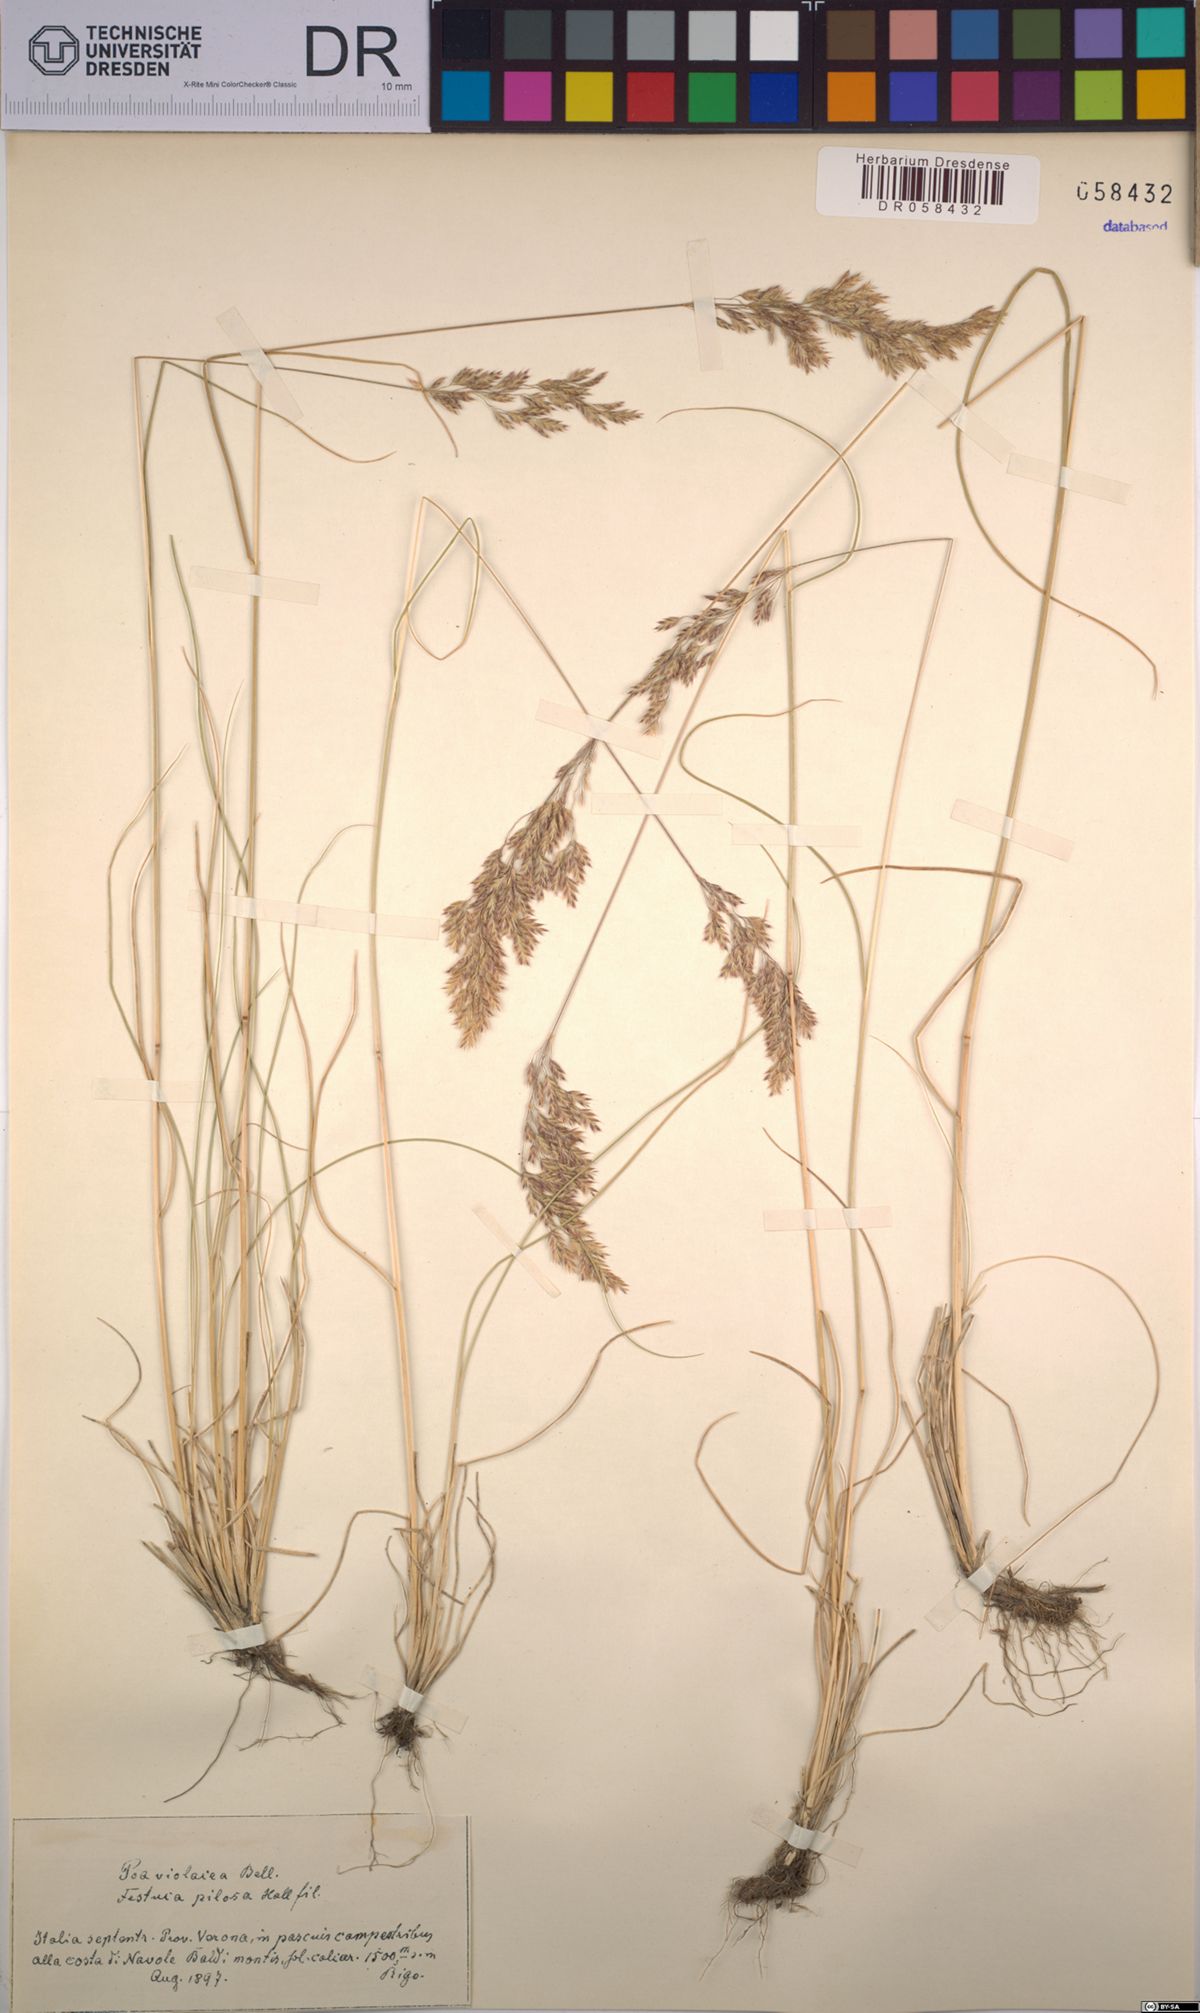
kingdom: Plantae
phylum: Tracheophyta
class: Liliopsida
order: Poales
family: Poaceae
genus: Bellardiochloa
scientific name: Bellardiochloa variegata
